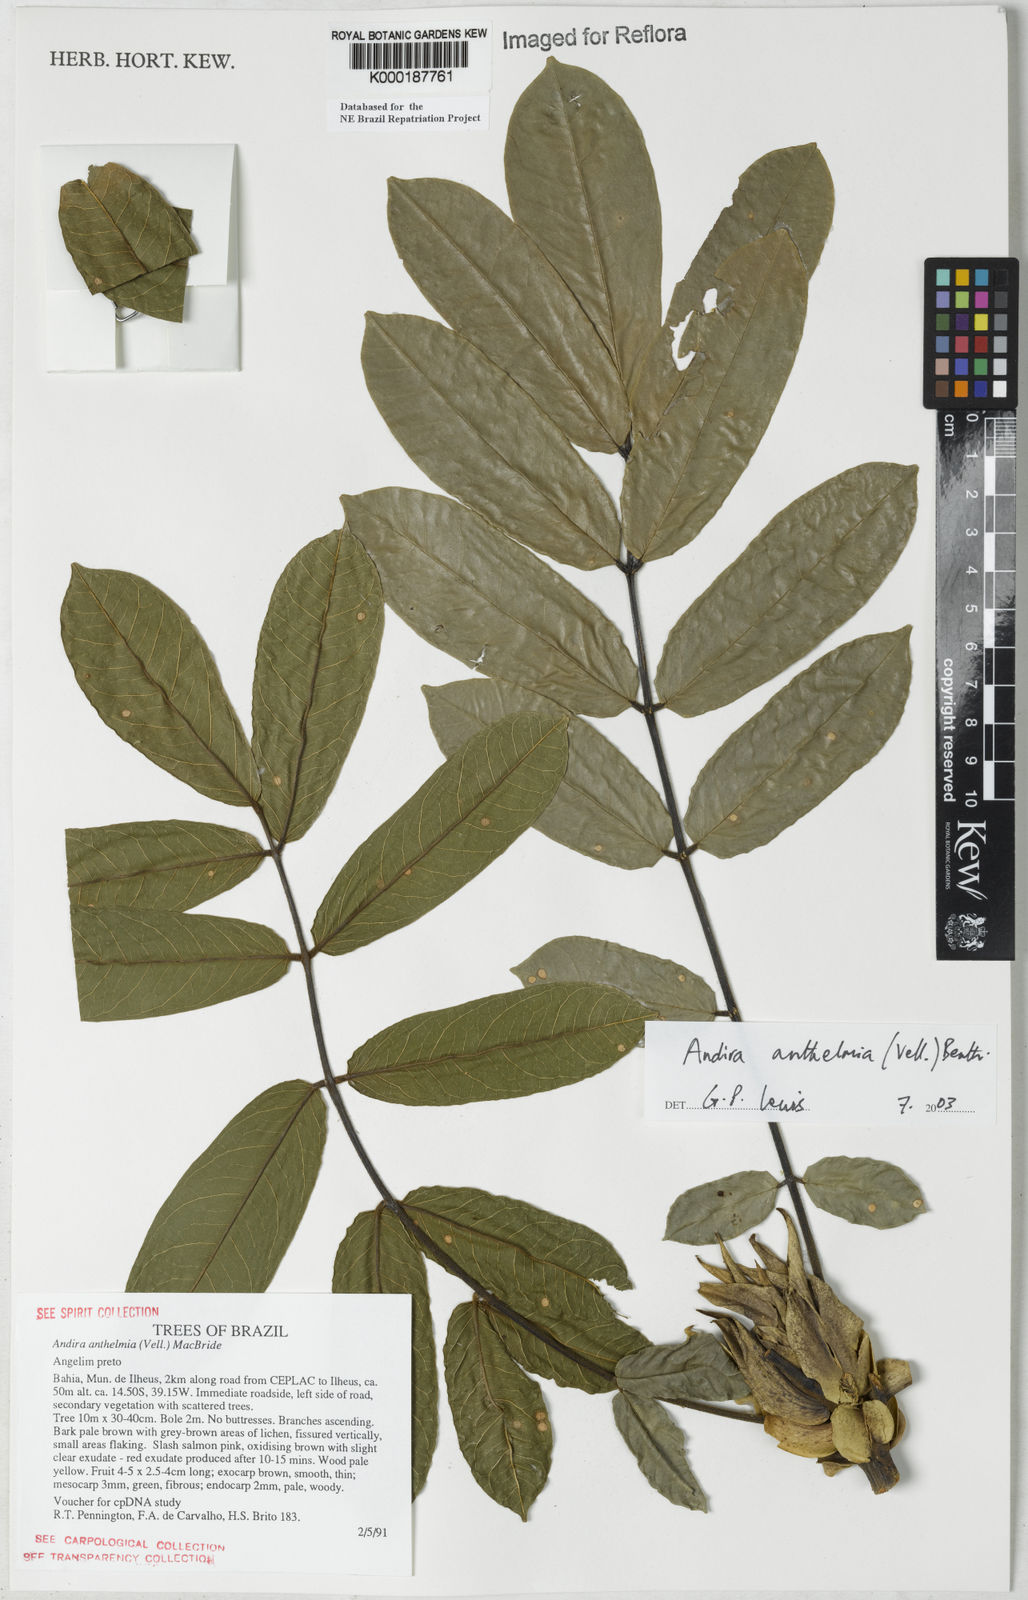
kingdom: Plantae
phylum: Tracheophyta
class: Magnoliopsida
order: Fabales
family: Fabaceae
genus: Andira
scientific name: Andira
